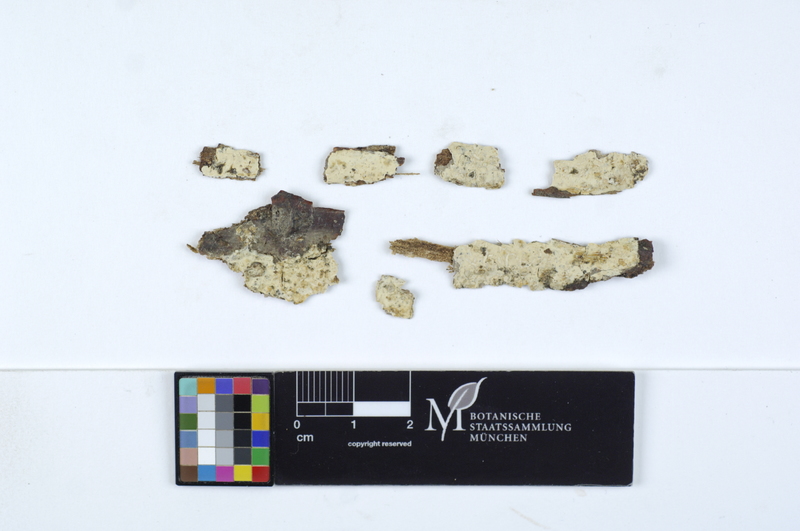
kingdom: Plantae
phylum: Tracheophyta
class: Magnoliopsida
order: Fagales
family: Fagaceae
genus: Fagus
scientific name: Fagus sylvatica
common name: Beech
